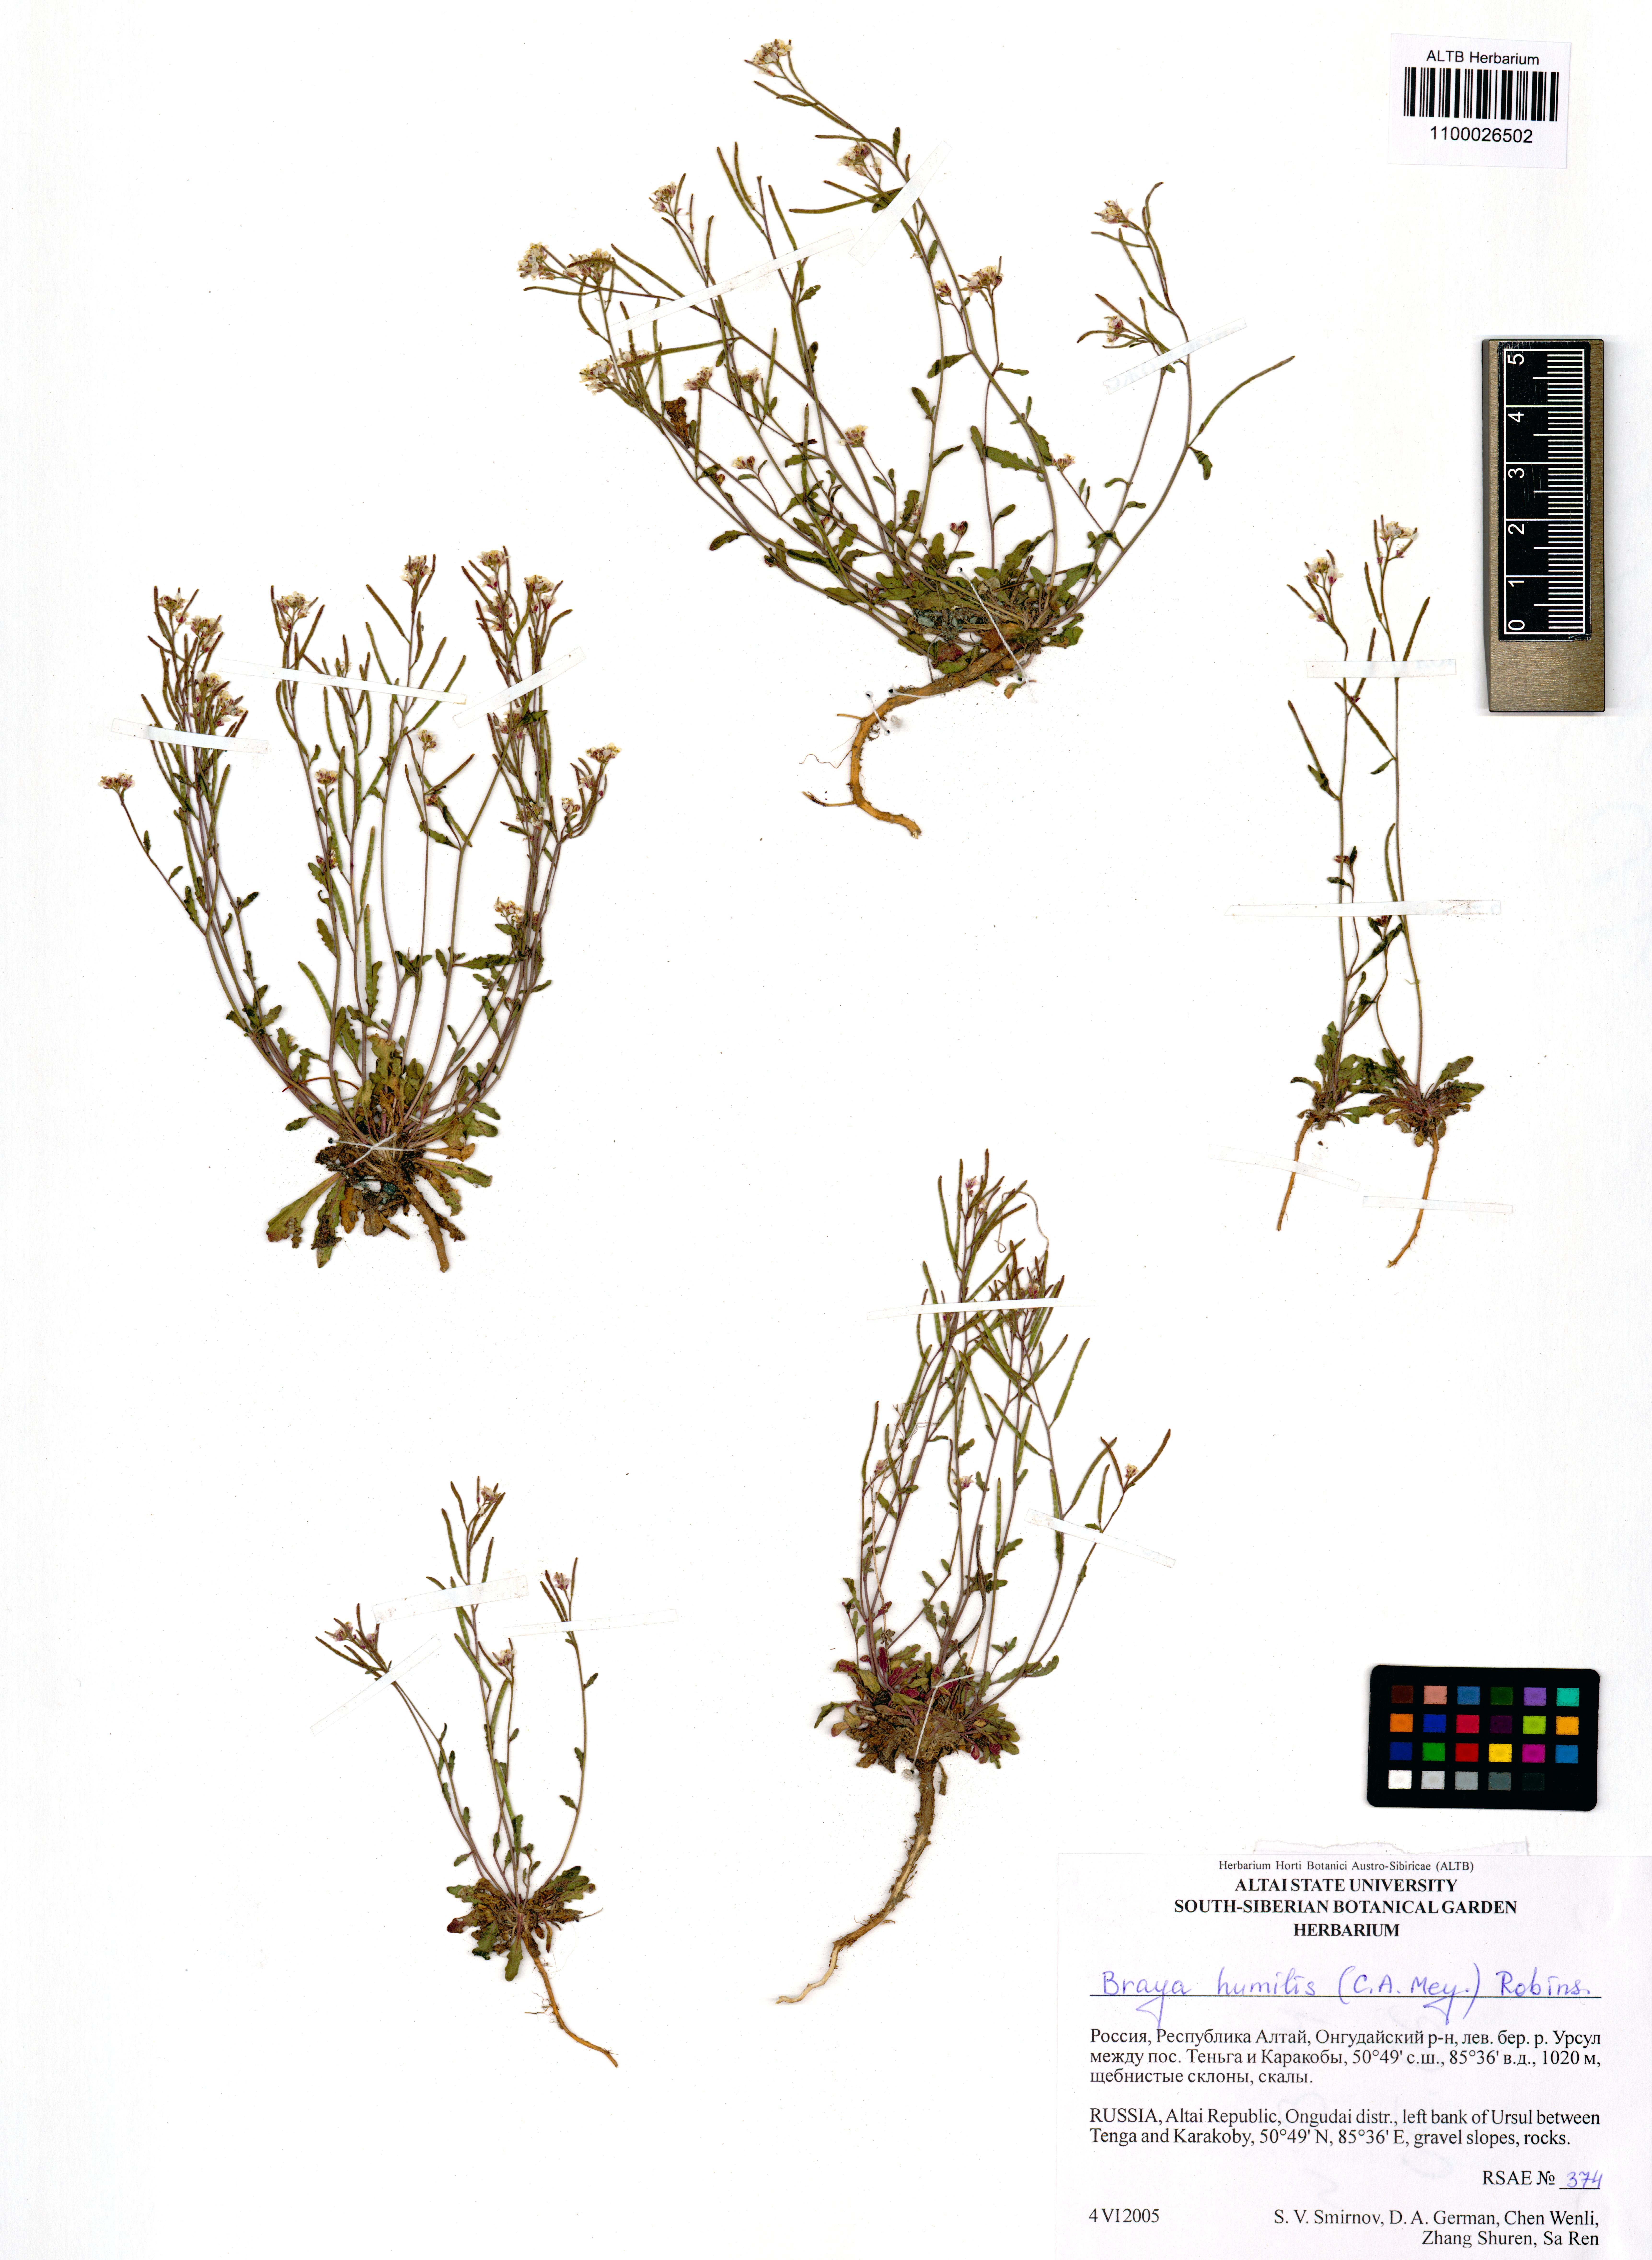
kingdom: Plantae
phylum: Tracheophyta
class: Magnoliopsida
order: Brassicales
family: Brassicaceae
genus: Braya
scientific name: Braya humilis
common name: Alpine northern rockcress
